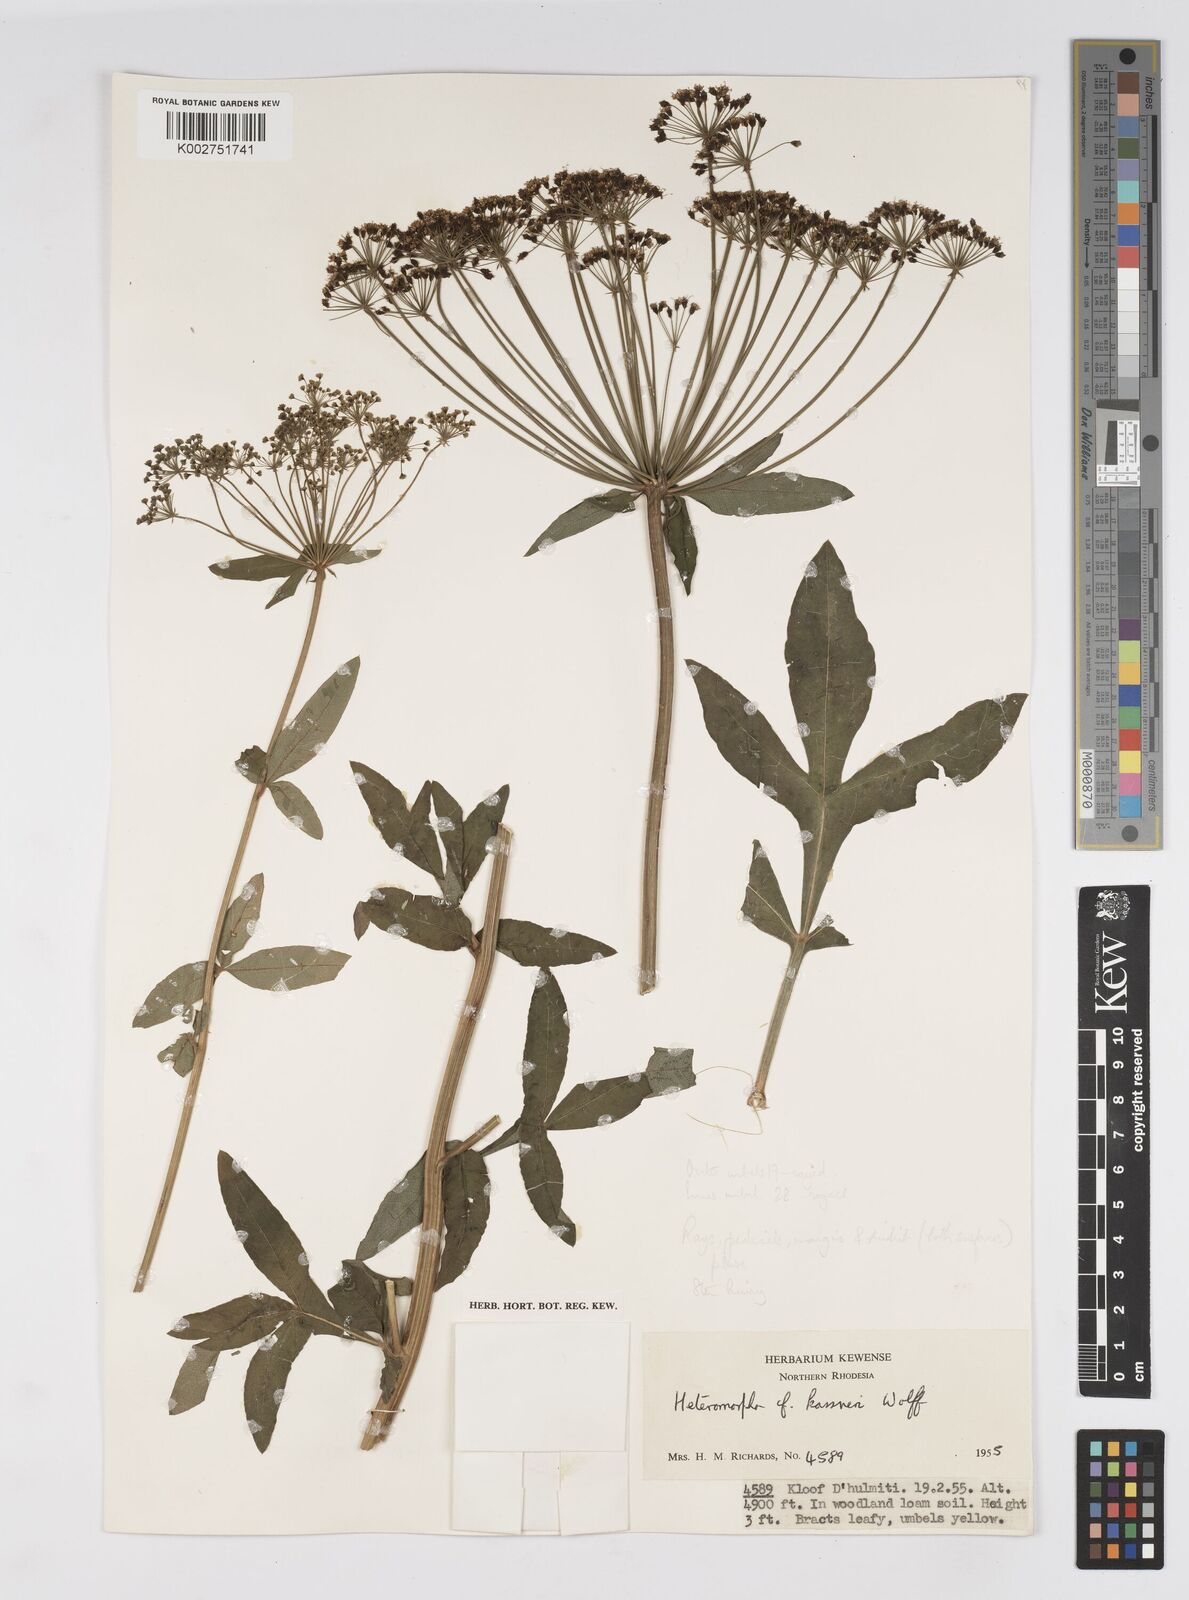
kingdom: Plantae
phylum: Tracheophyta
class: Magnoliopsida
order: Apiales
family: Apiaceae
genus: Heteromorpha
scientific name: Heteromorpha involucrata
